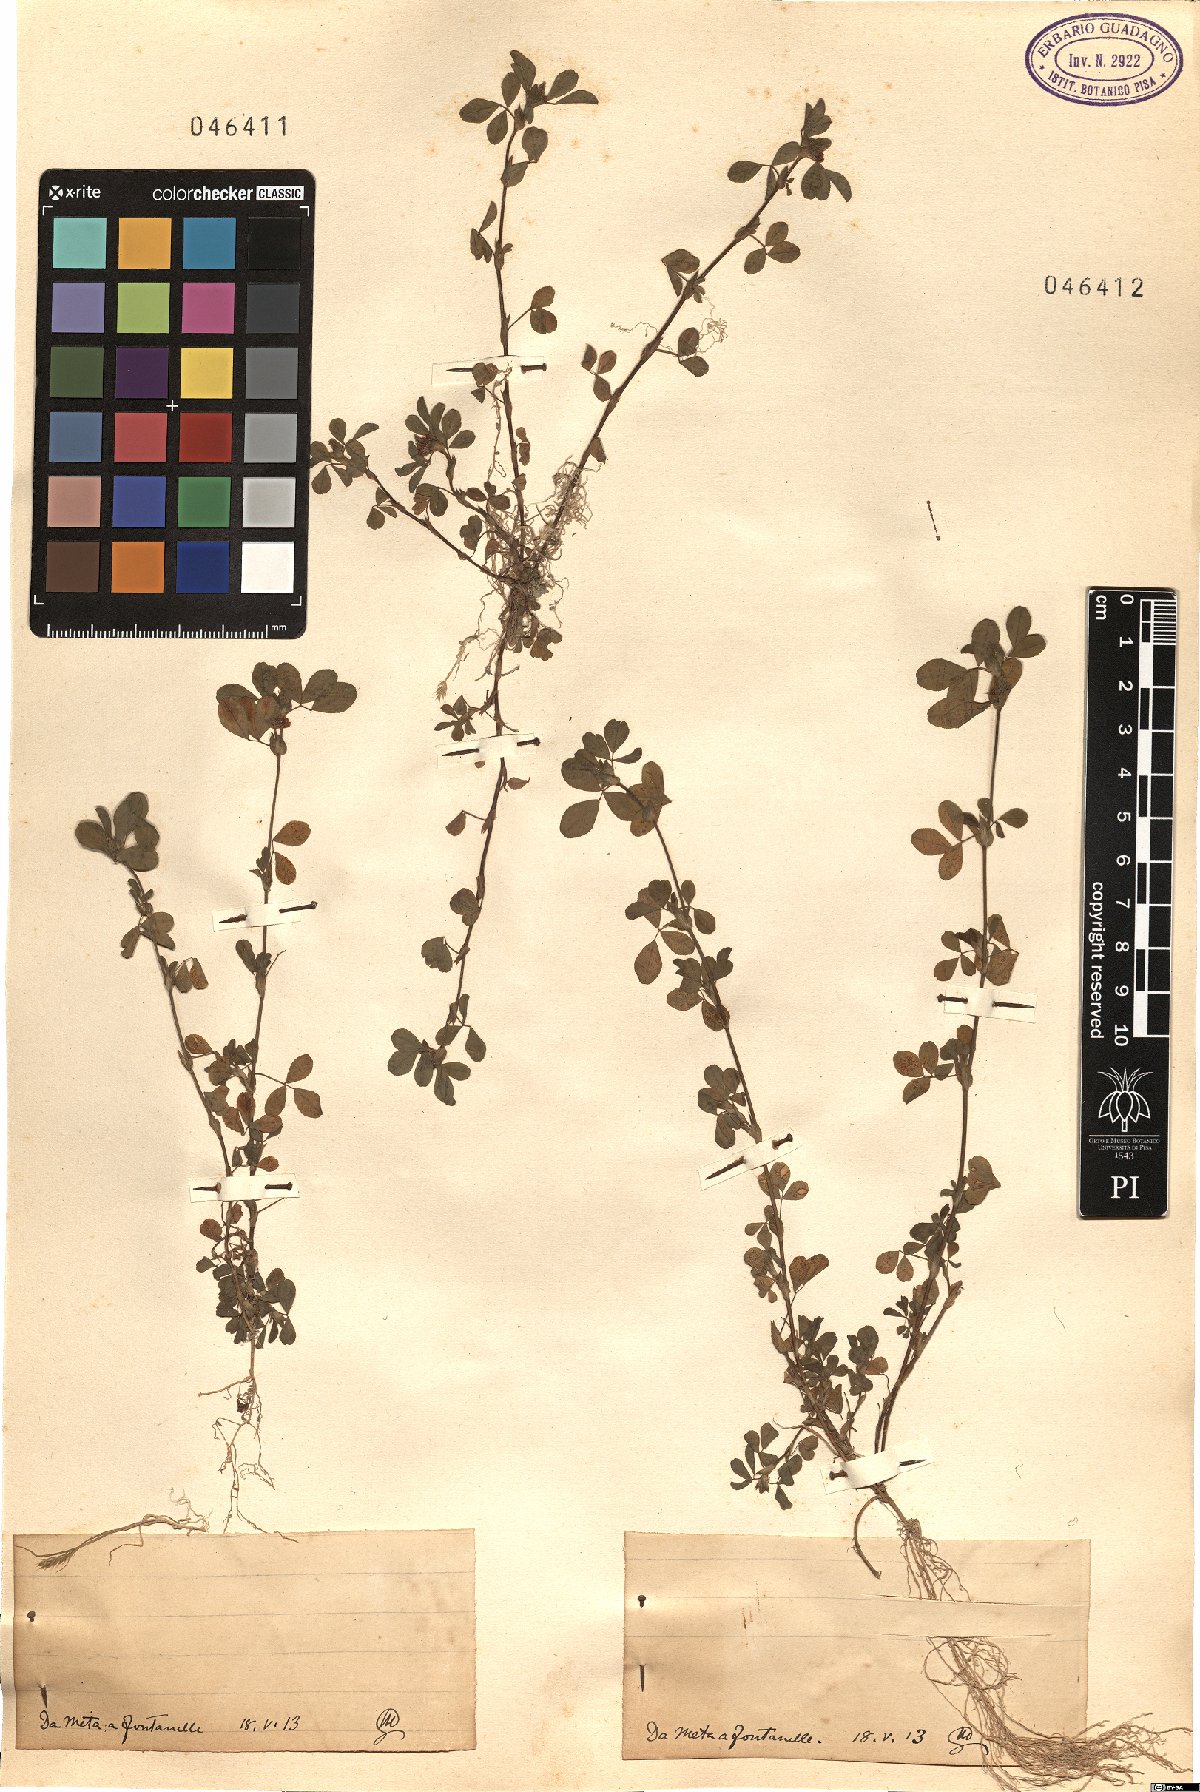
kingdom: Plantae
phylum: Tracheophyta
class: Magnoliopsida
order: Fabales
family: Fabaceae
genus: Trifolium
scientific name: Trifolium
